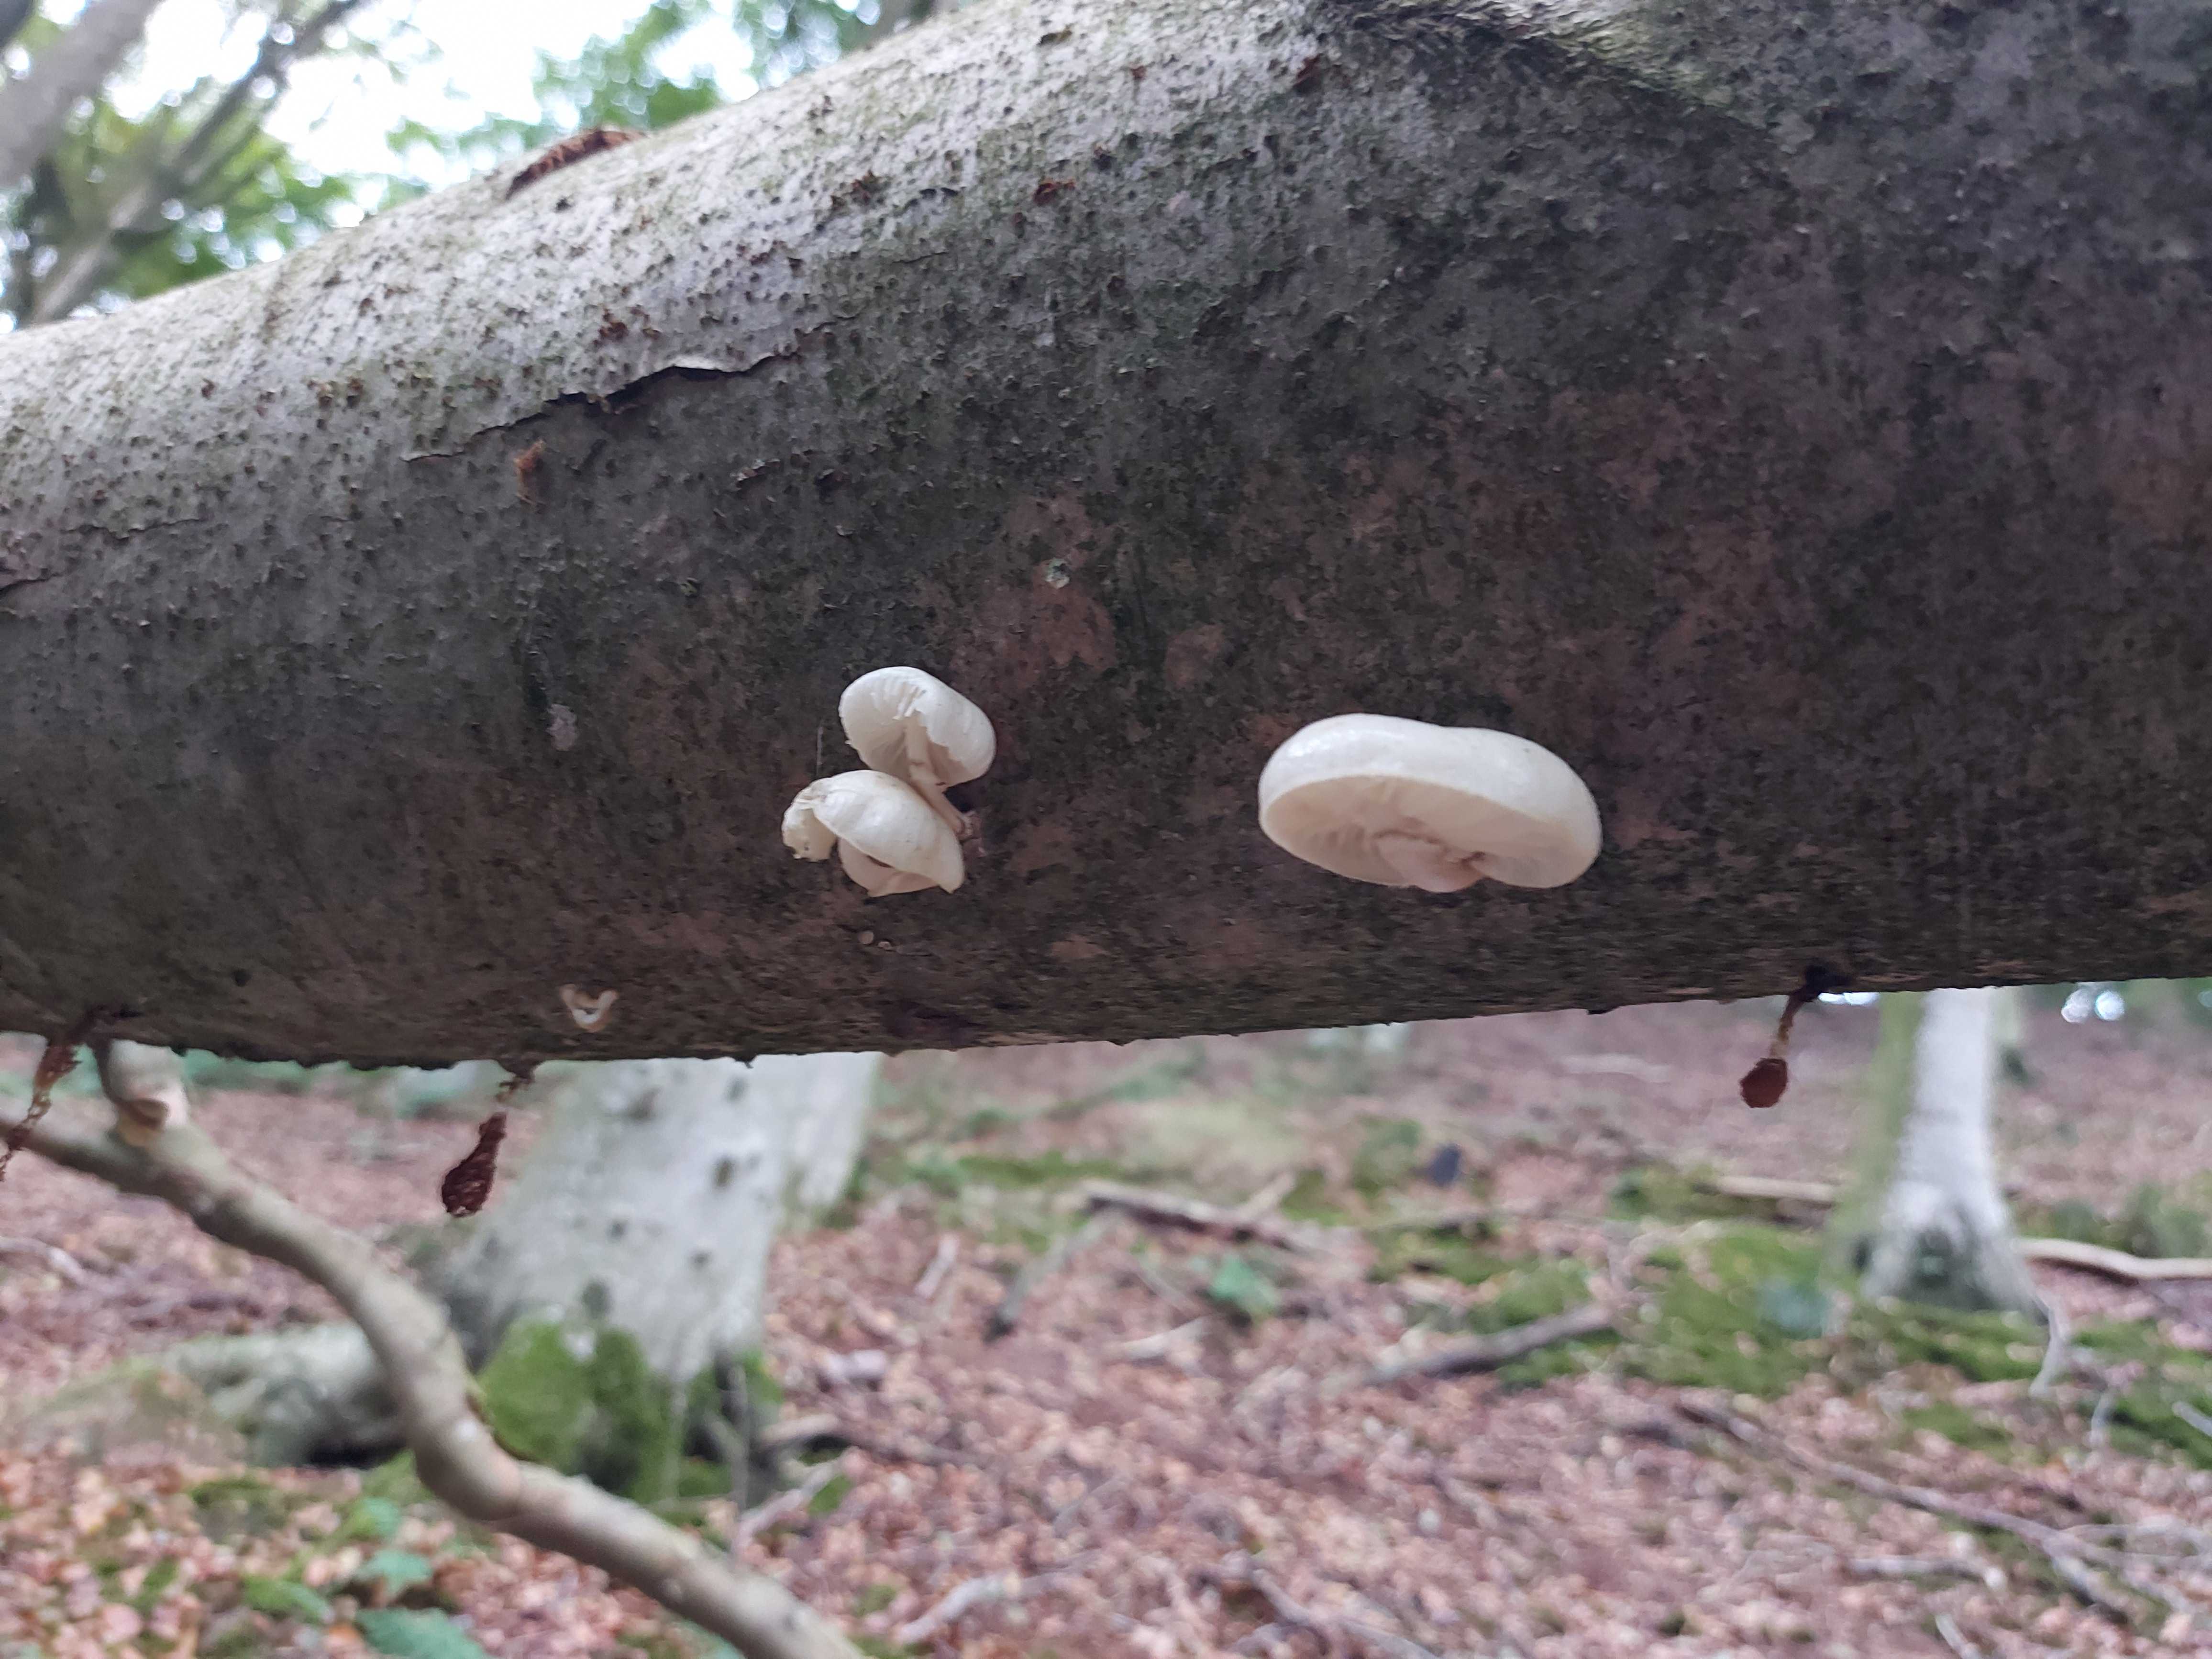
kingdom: Fungi
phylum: Basidiomycota
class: Agaricomycetes
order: Agaricales
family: Physalacriaceae
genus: Mucidula
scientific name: Mucidula mucida
